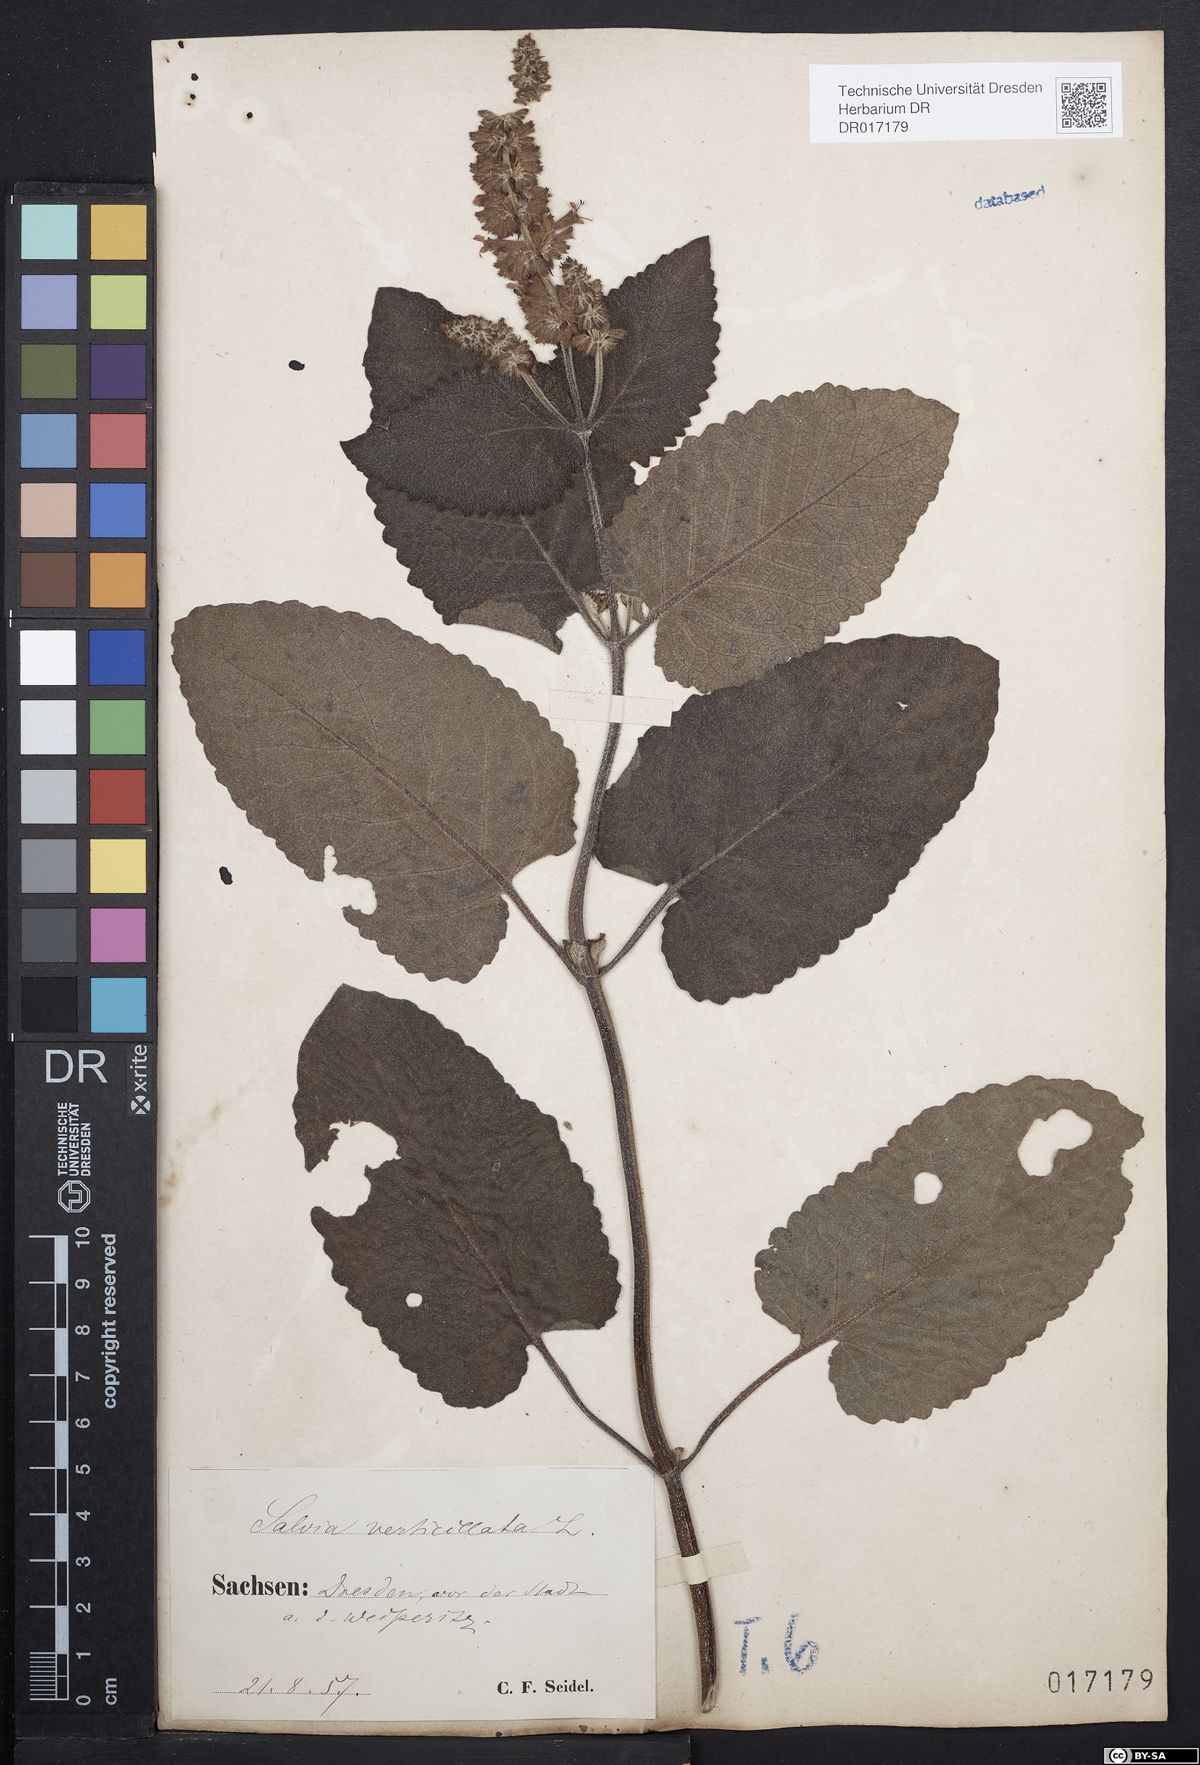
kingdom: Plantae
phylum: Tracheophyta
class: Magnoliopsida
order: Lamiales
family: Lamiaceae
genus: Salvia
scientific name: Salvia verticillata
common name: Whorled clary
